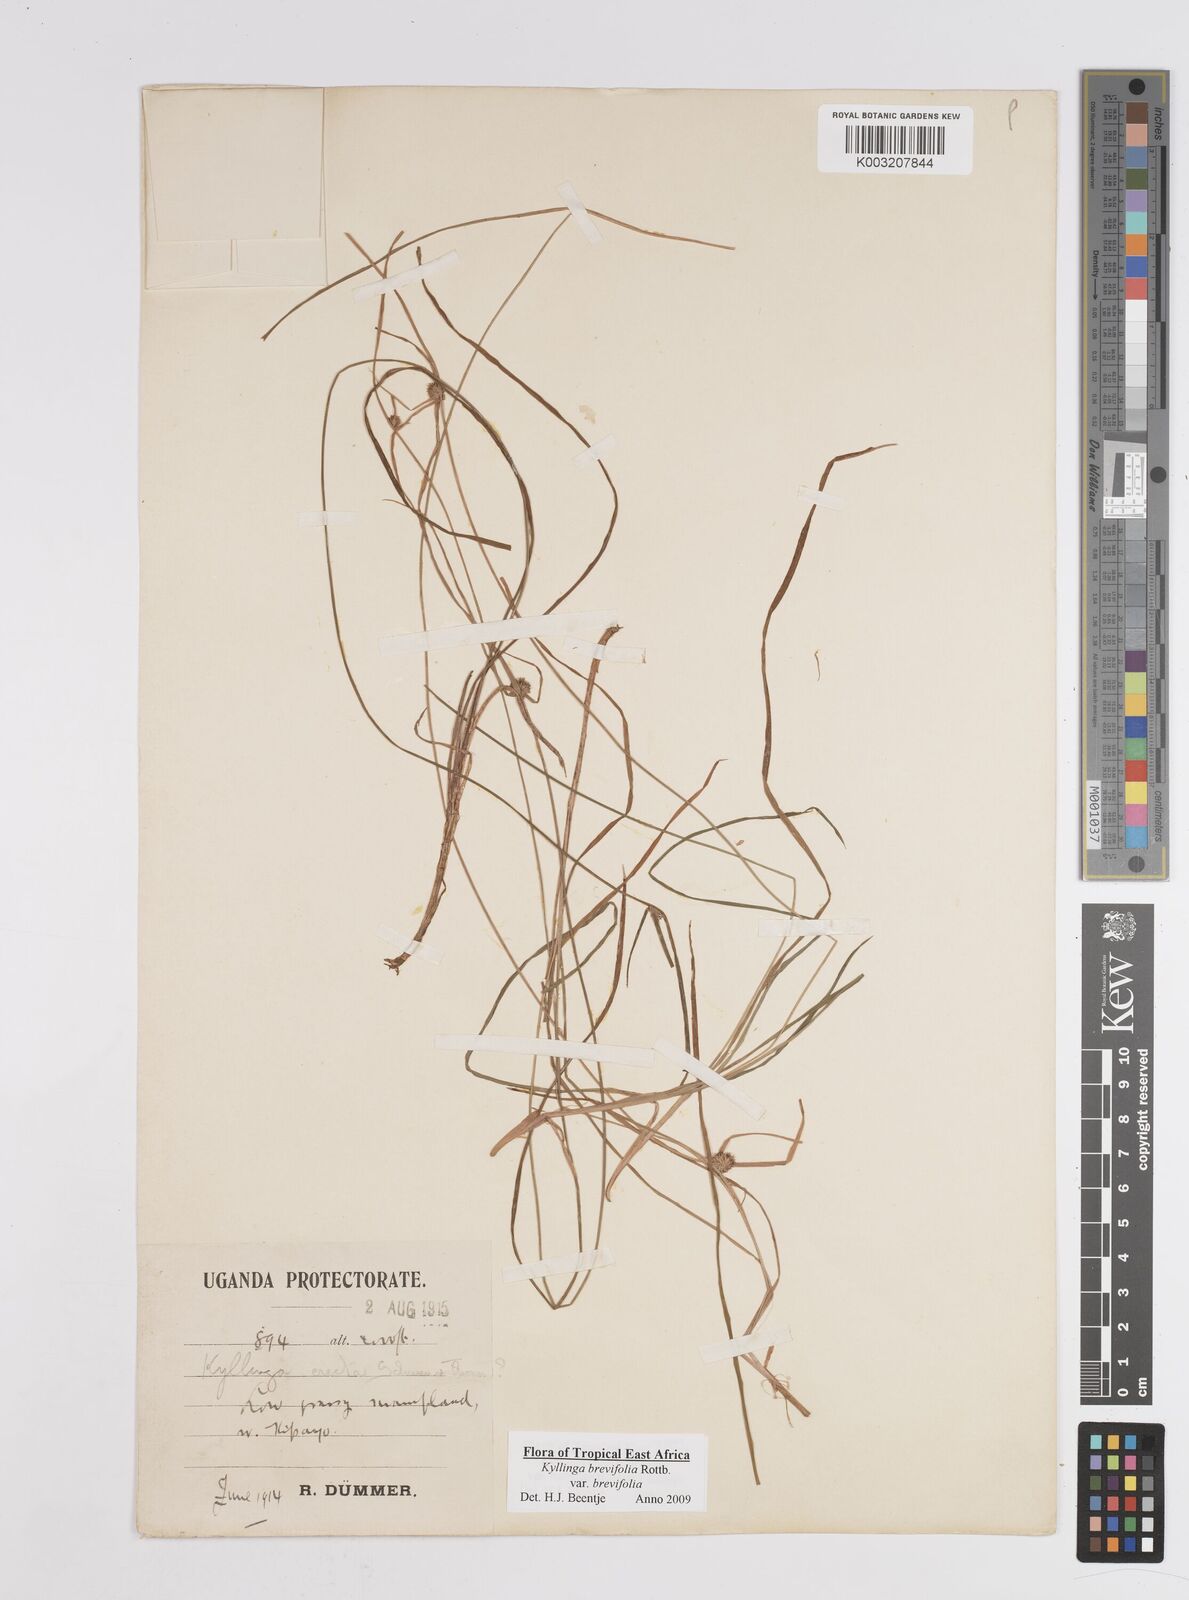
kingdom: Plantae
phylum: Tracheophyta
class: Liliopsida
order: Poales
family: Cyperaceae
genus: Cyperus
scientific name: Cyperus erectus
